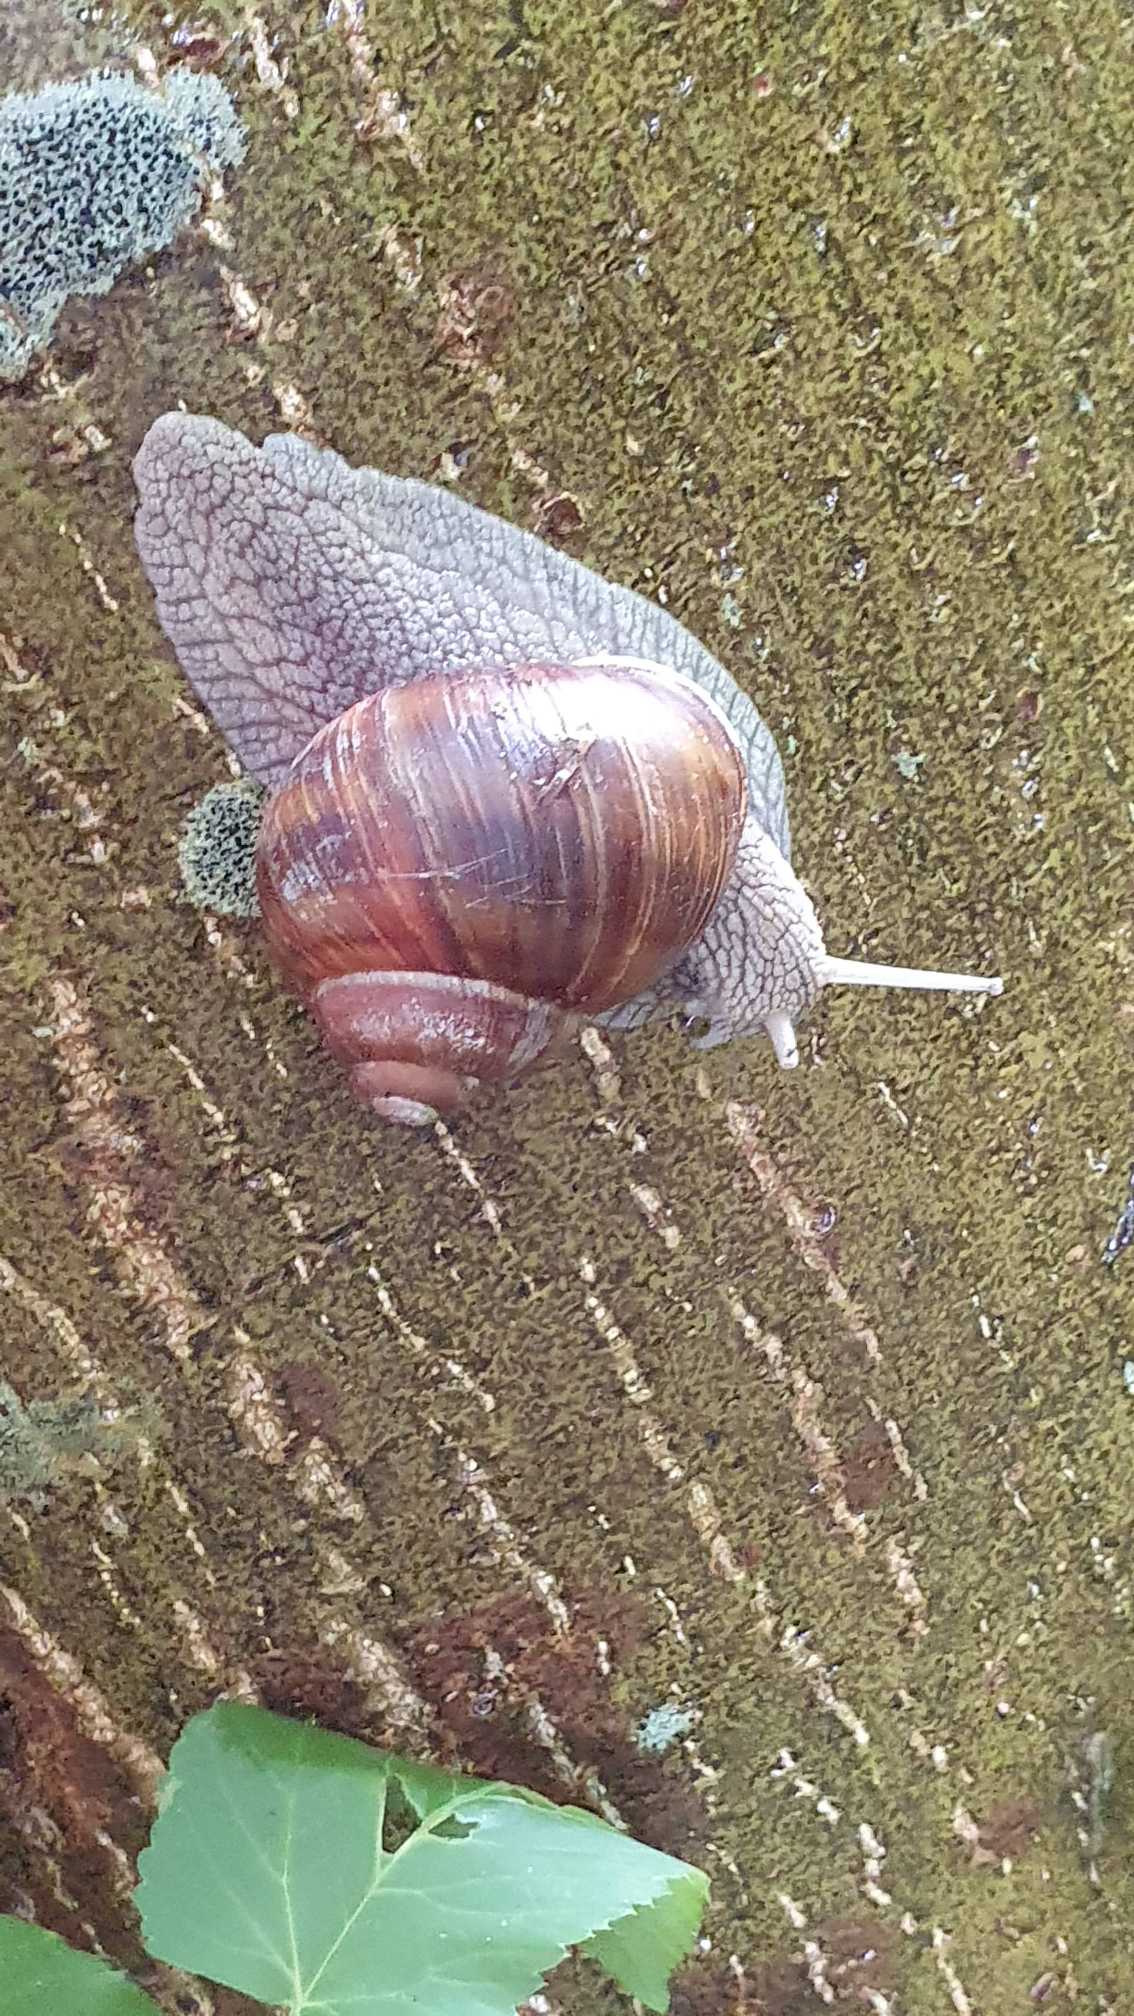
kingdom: Animalia
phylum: Mollusca
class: Gastropoda
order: Stylommatophora
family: Helicidae
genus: Helix
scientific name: Helix pomatia
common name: Vinbjergsnegl
